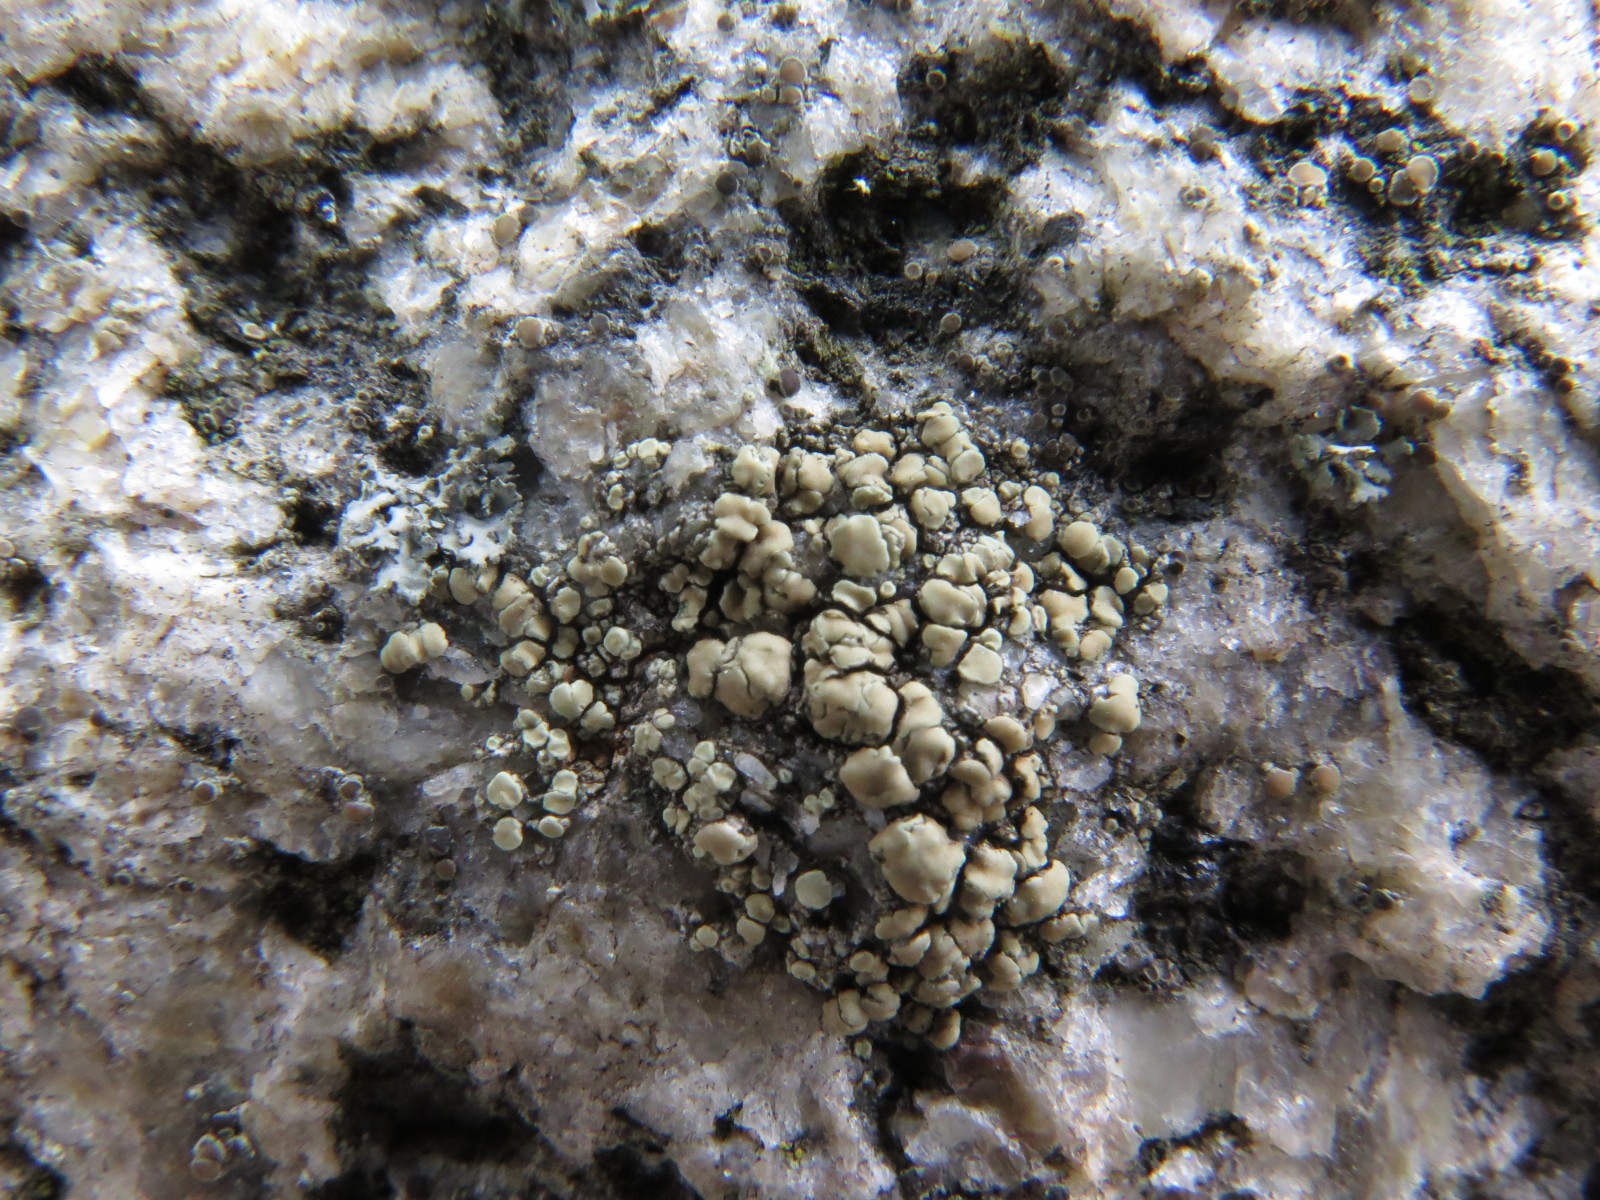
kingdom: Fungi
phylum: Ascomycota
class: Lecanoromycetes
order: Lecanorales
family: Lecanoraceae
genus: Lecanora
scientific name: Lecanora polytropa
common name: bleggrøn kantskivelav
